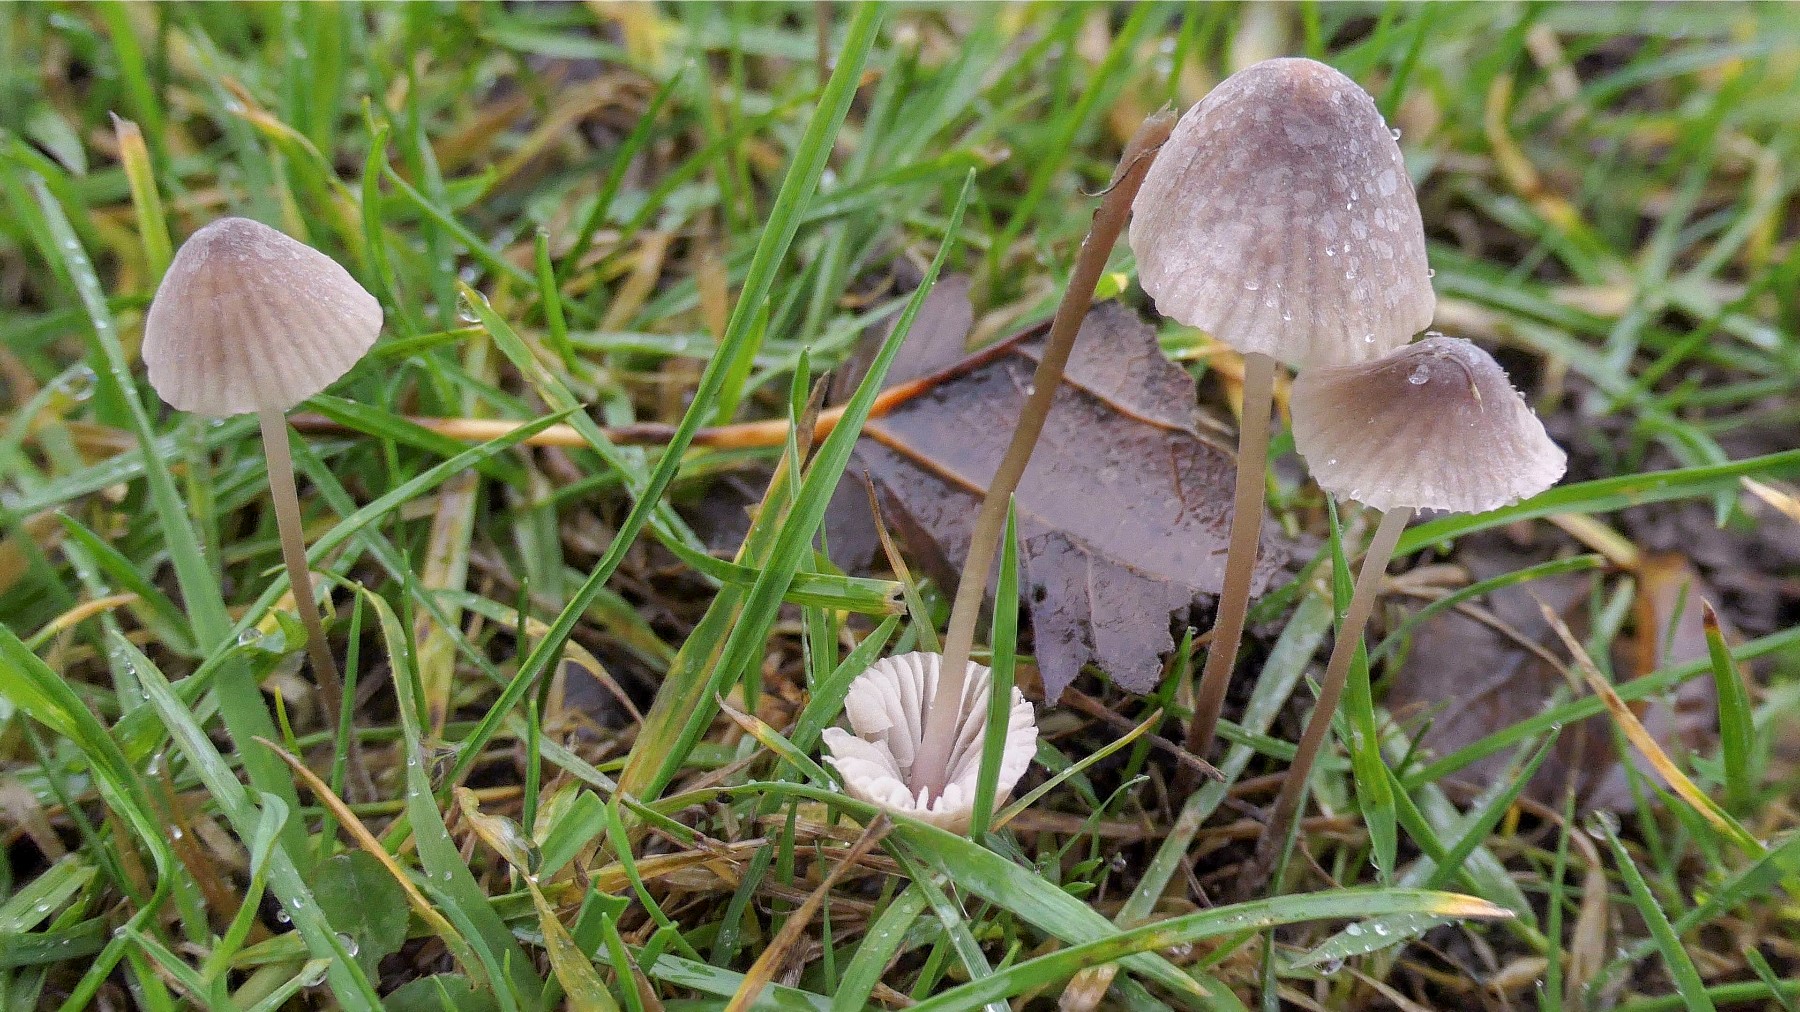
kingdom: Fungi
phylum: Basidiomycota
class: Agaricomycetes
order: Agaricales
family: Mycenaceae
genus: Mycena
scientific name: Mycena olivaceomarginata
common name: brunægget huesvamp
